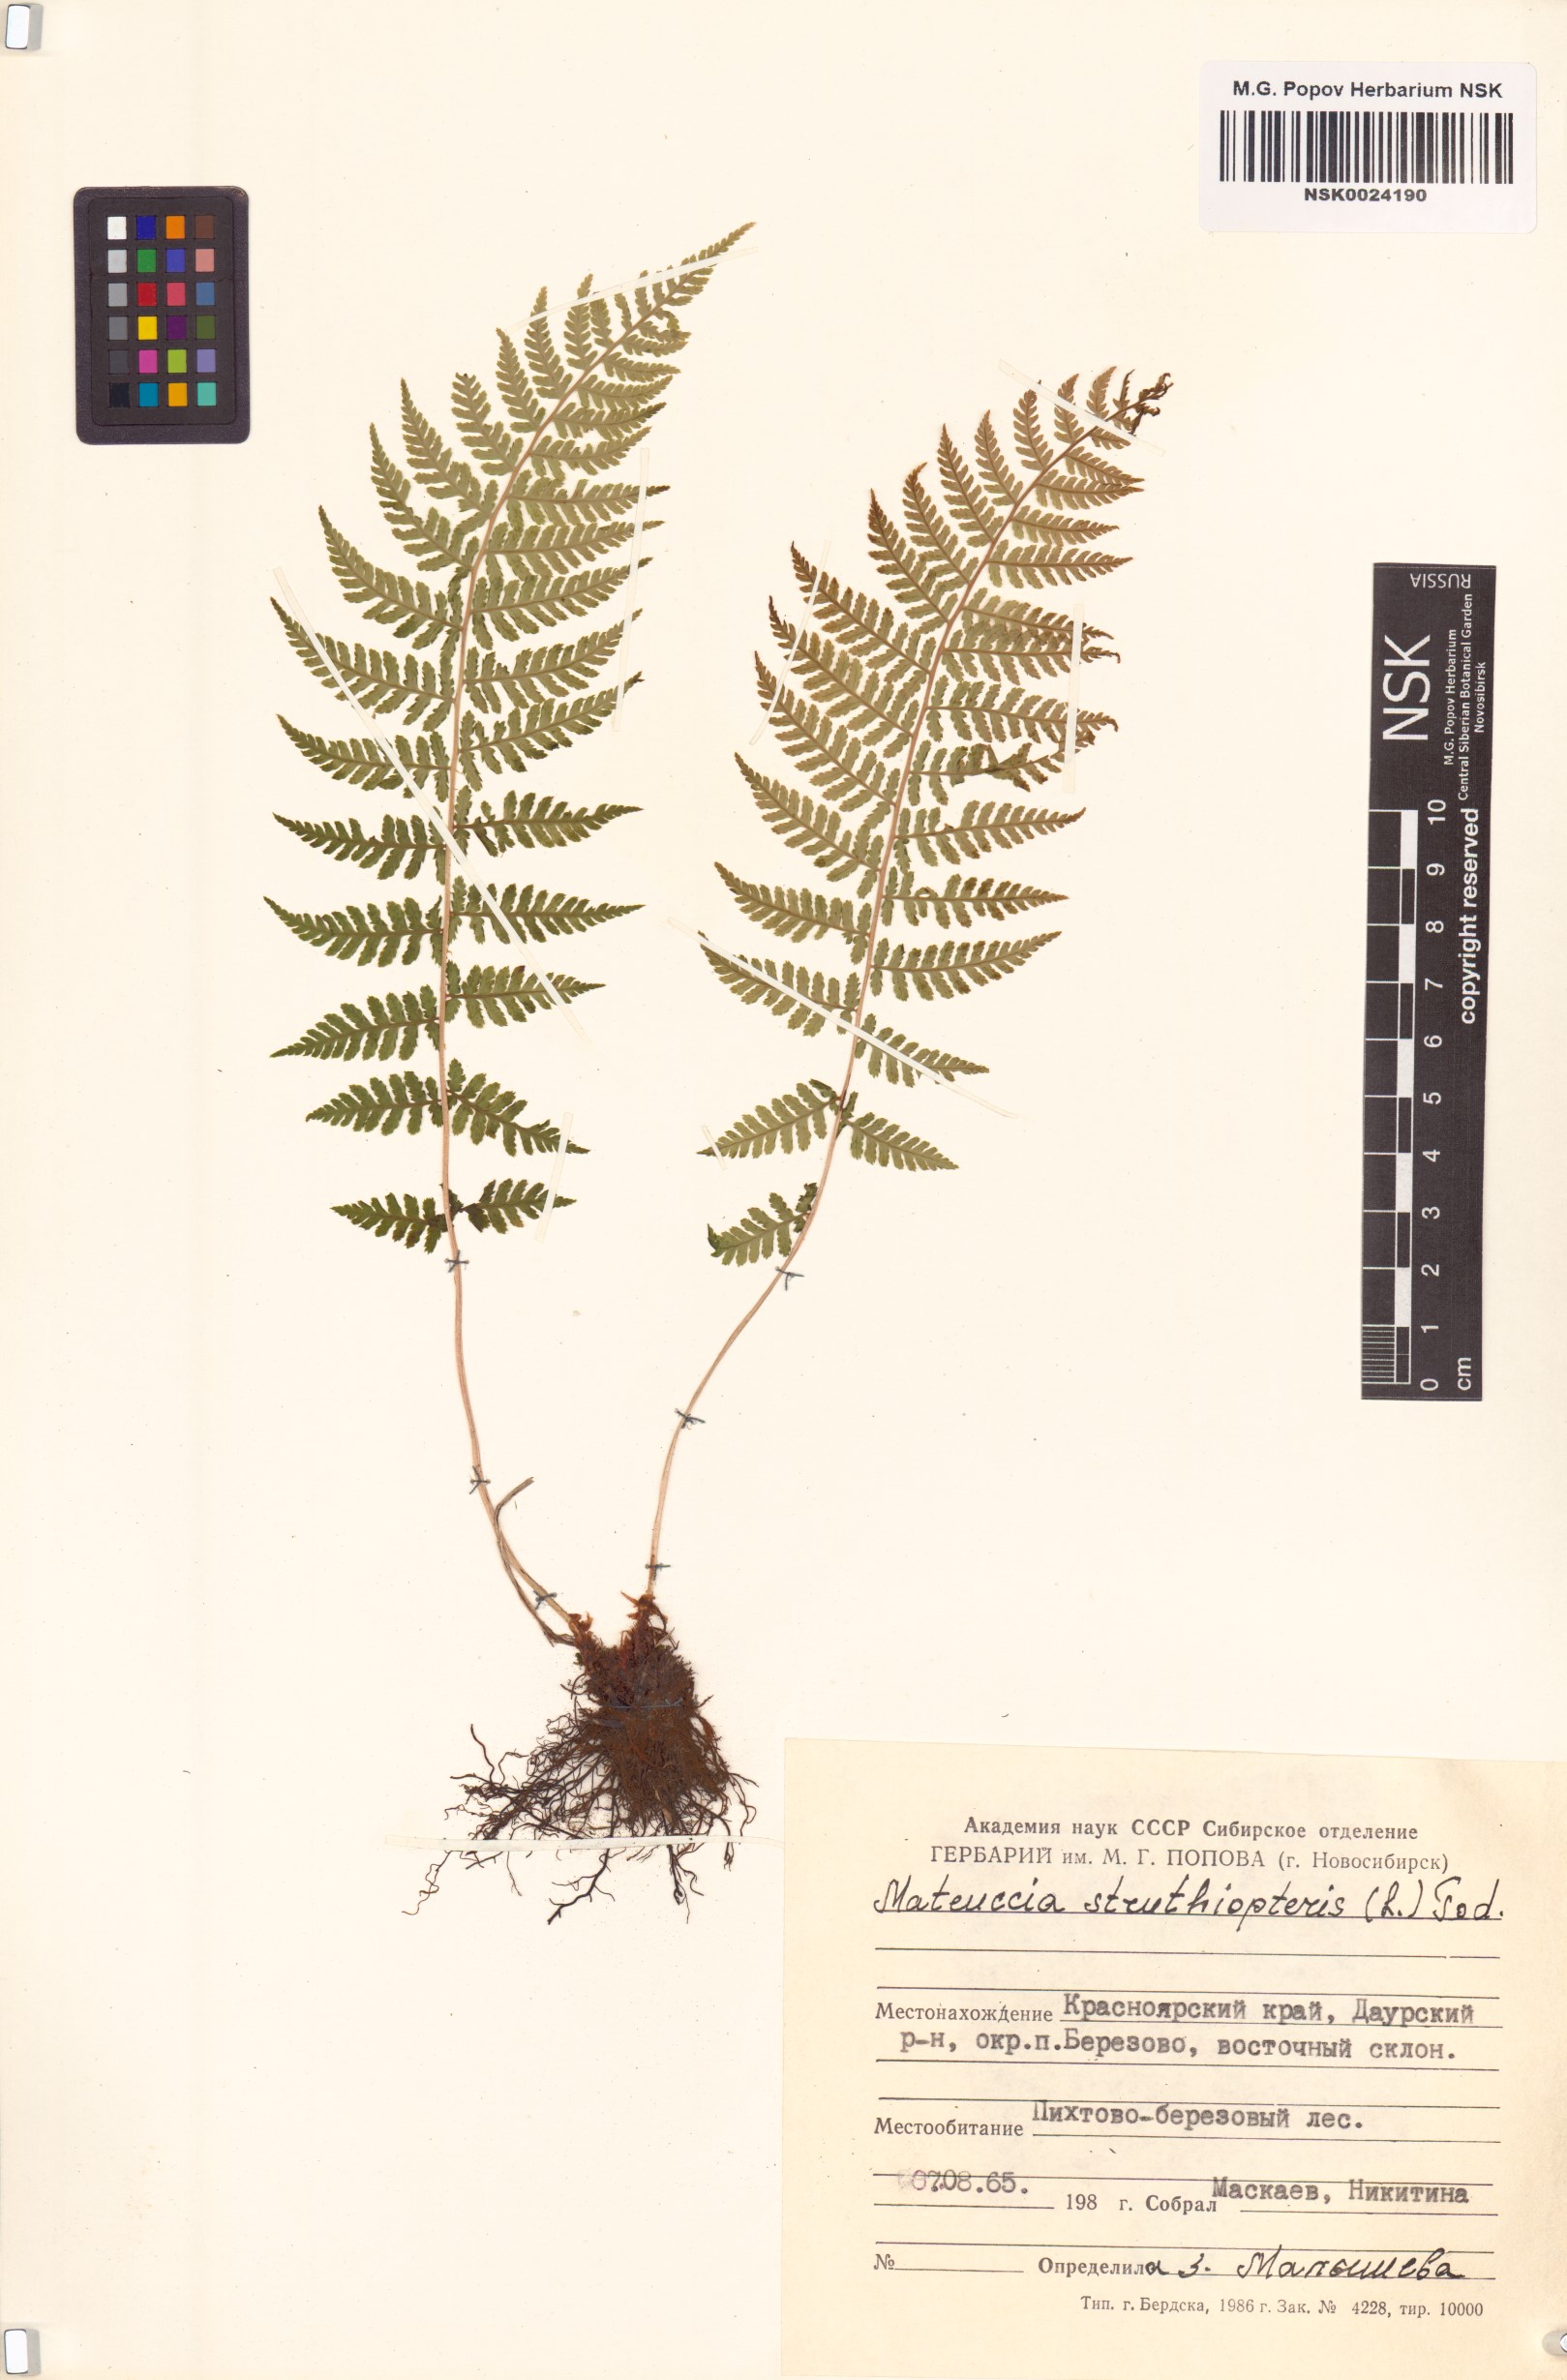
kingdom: Plantae
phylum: Tracheophyta
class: Polypodiopsida
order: Polypodiales
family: Onocleaceae
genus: Matteuccia
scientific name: Matteuccia struthiopteris
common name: Ostrich fern
